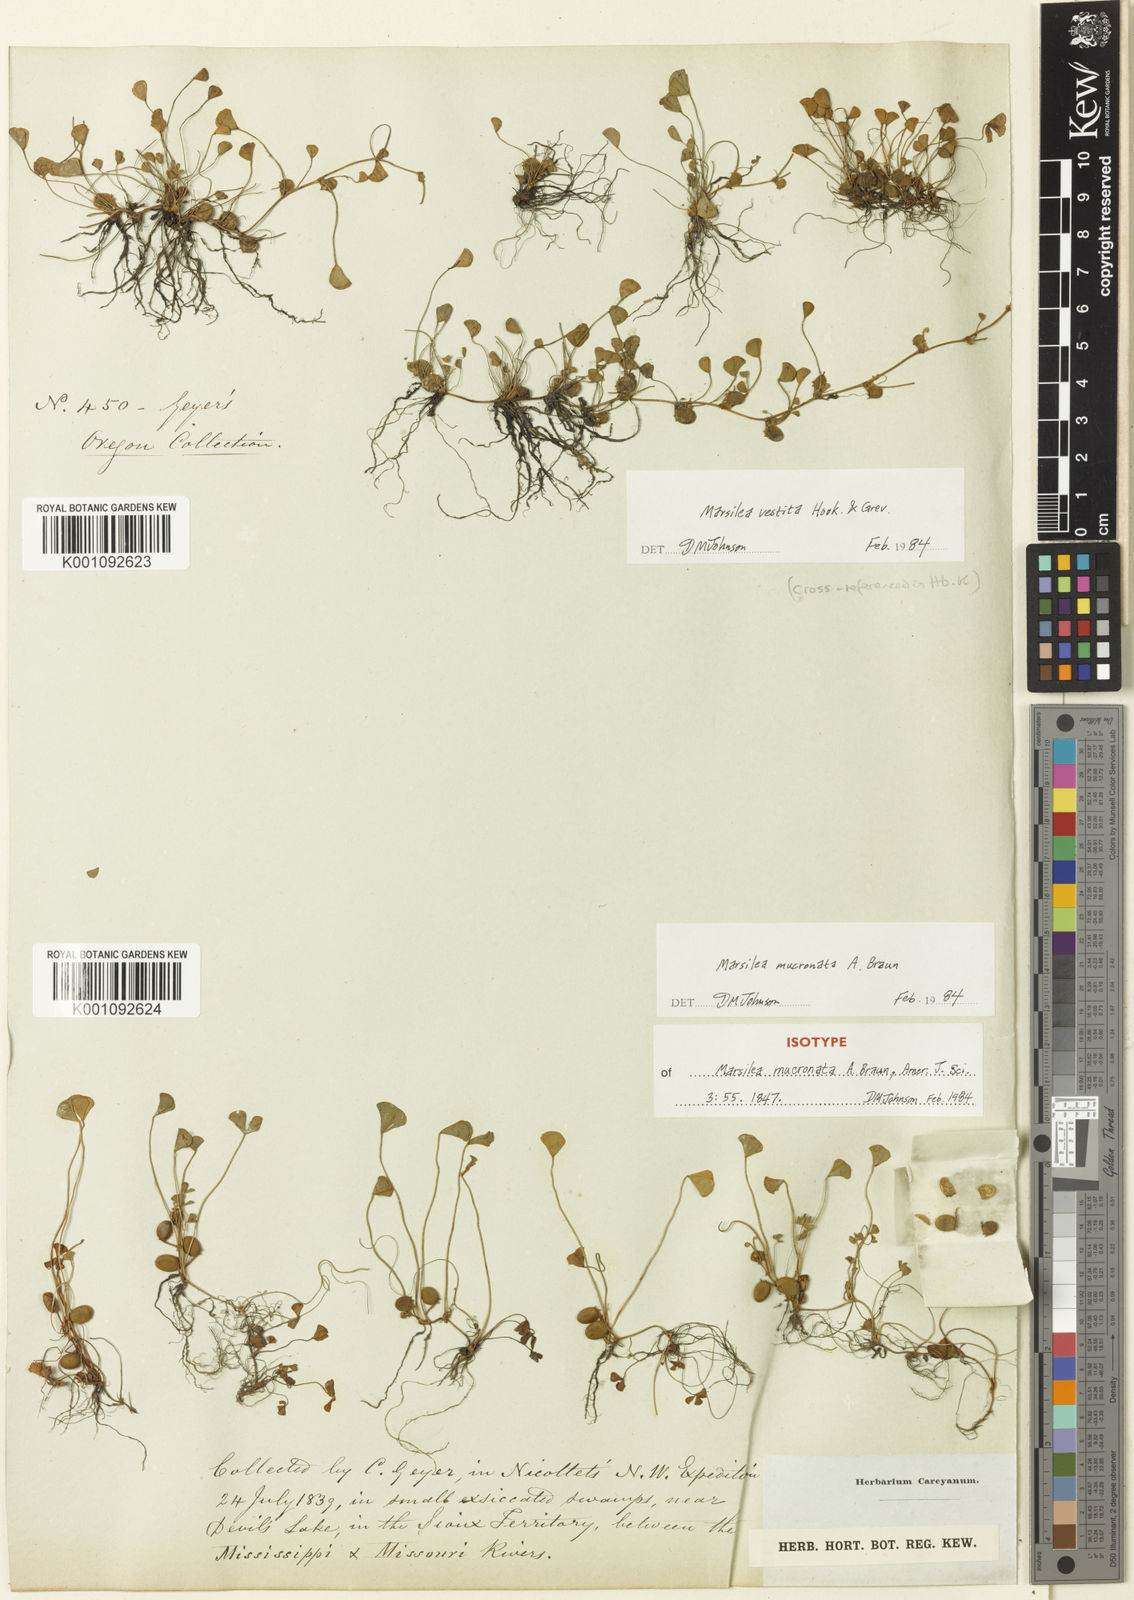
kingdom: Plantae
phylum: Tracheophyta
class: Polypodiopsida
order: Salviniales
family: Marsileaceae
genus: Marsilea
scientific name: Marsilea vestita
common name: Hooked-pepperwort
